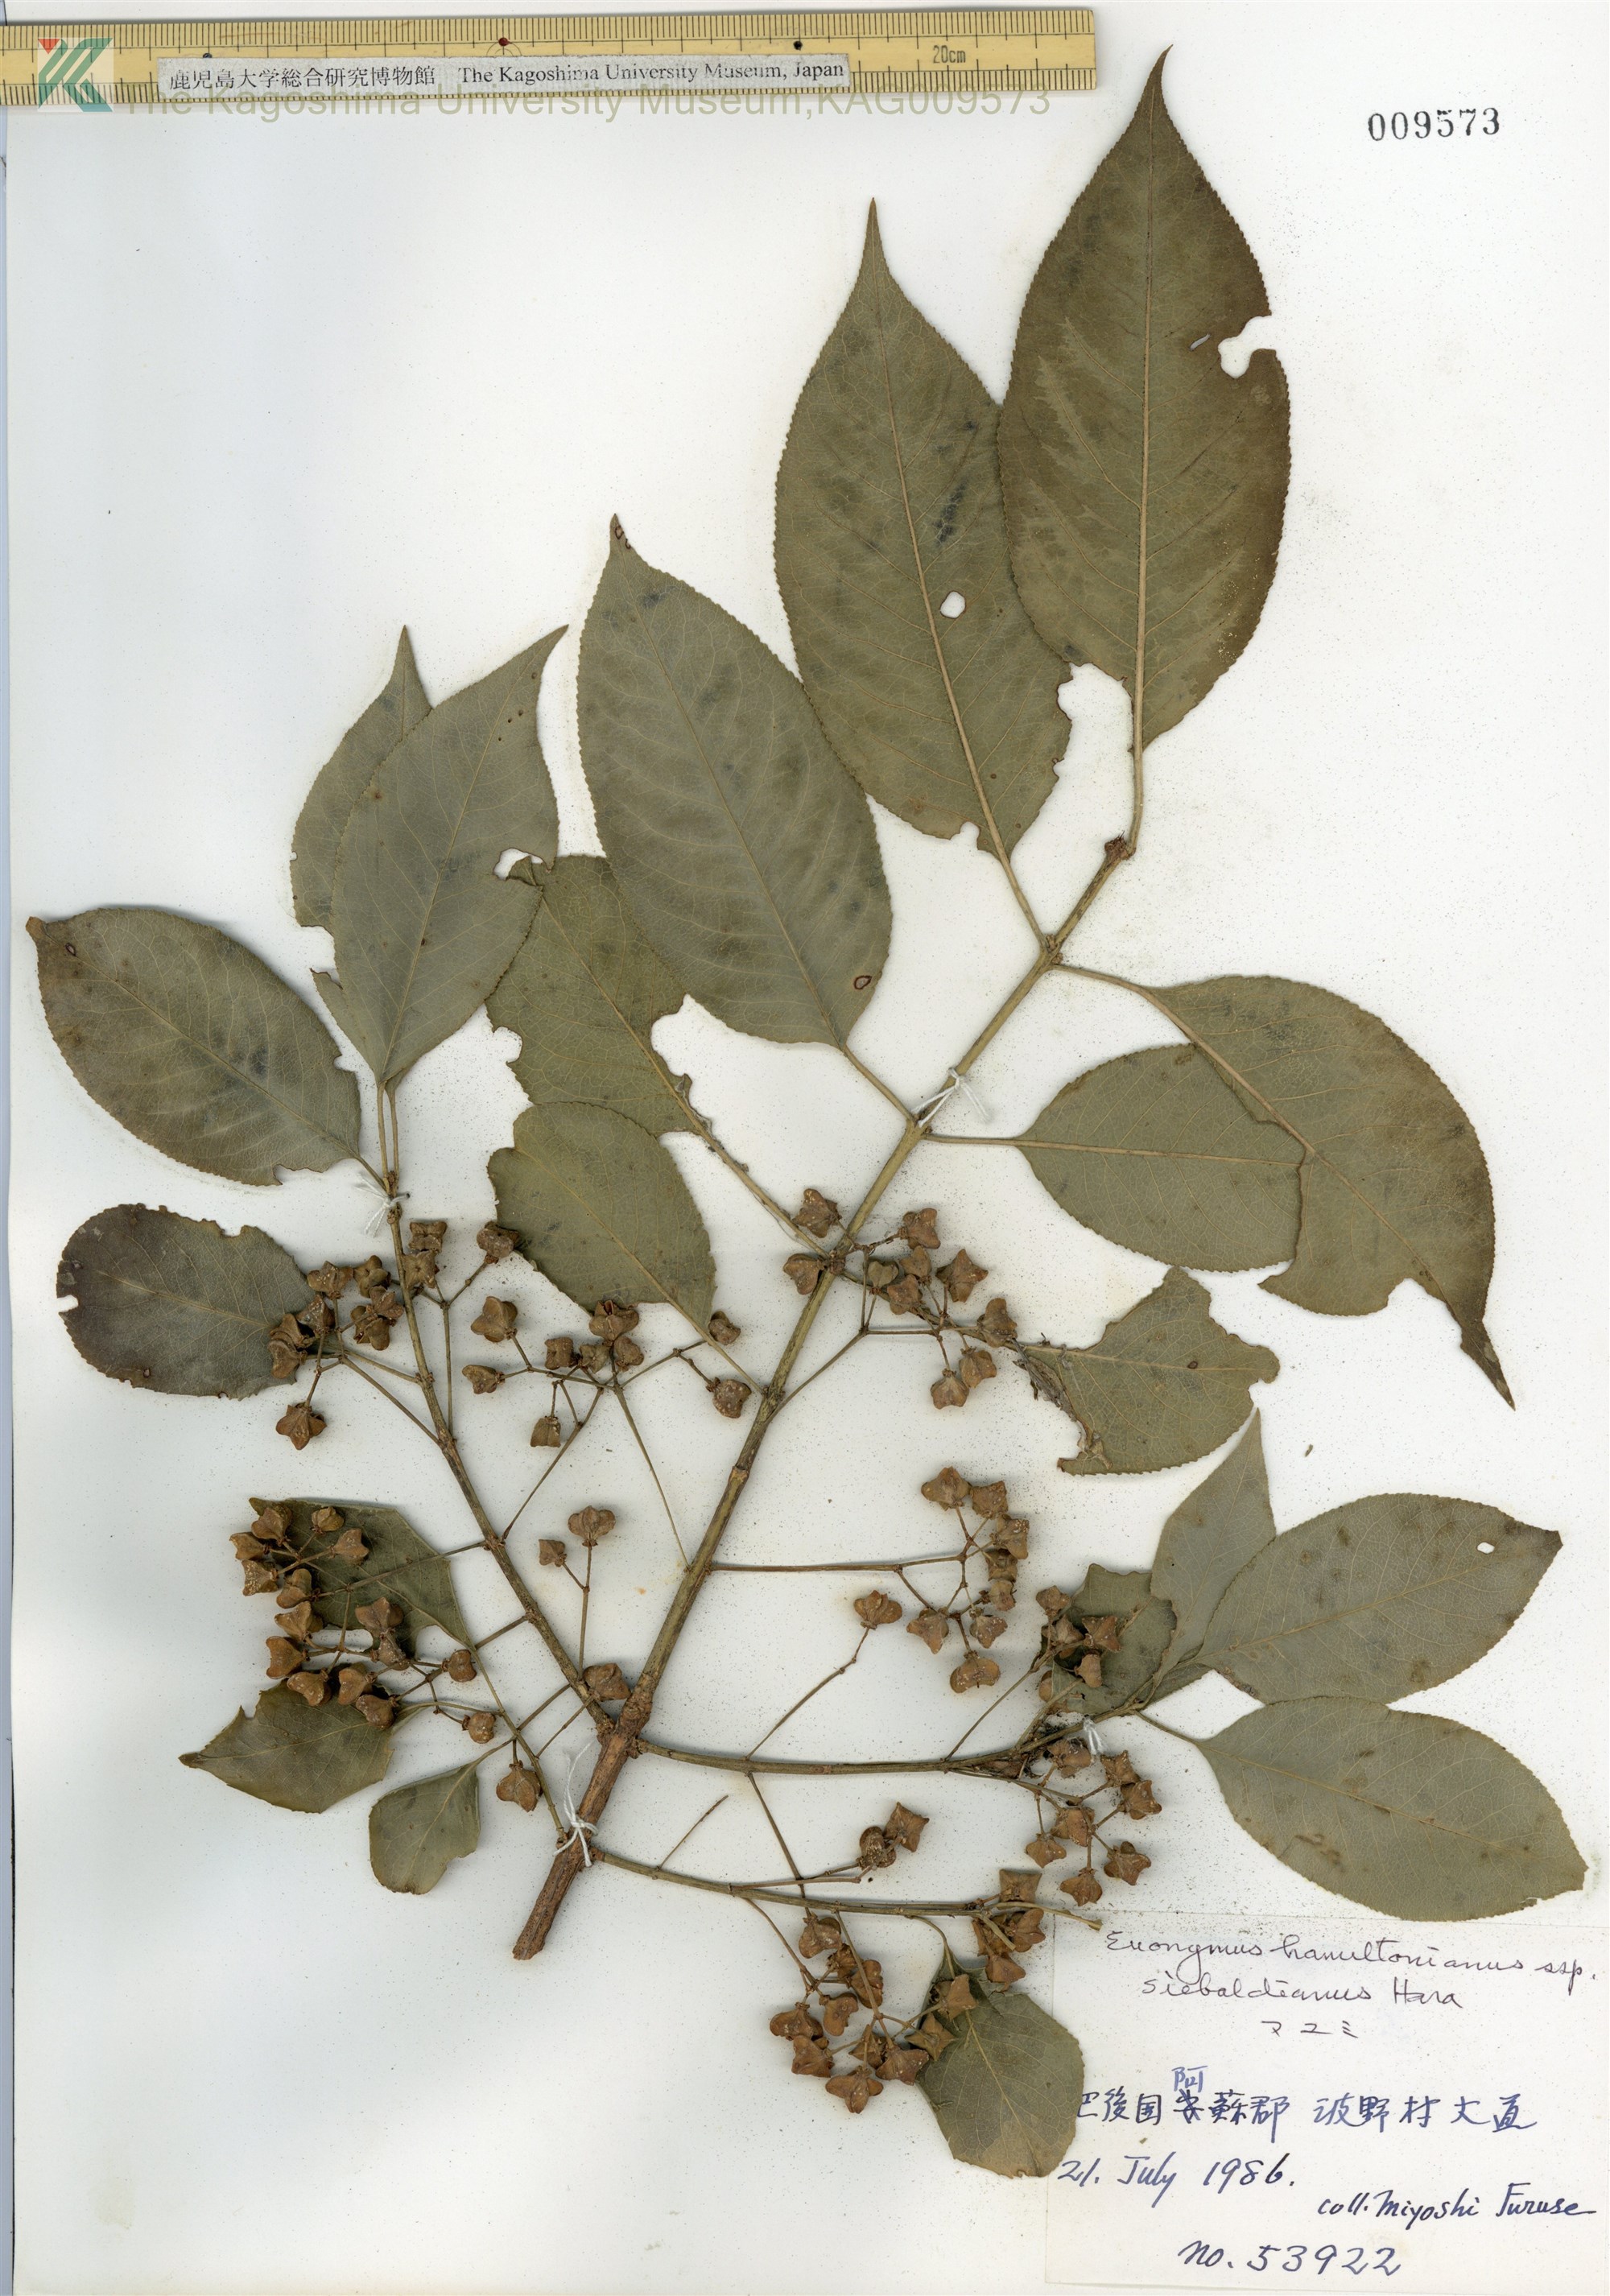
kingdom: Plantae
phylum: Tracheophyta
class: Magnoliopsida
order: Celastrales
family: Celastraceae
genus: Euonymus
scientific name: Euonymus hamiltonianus
